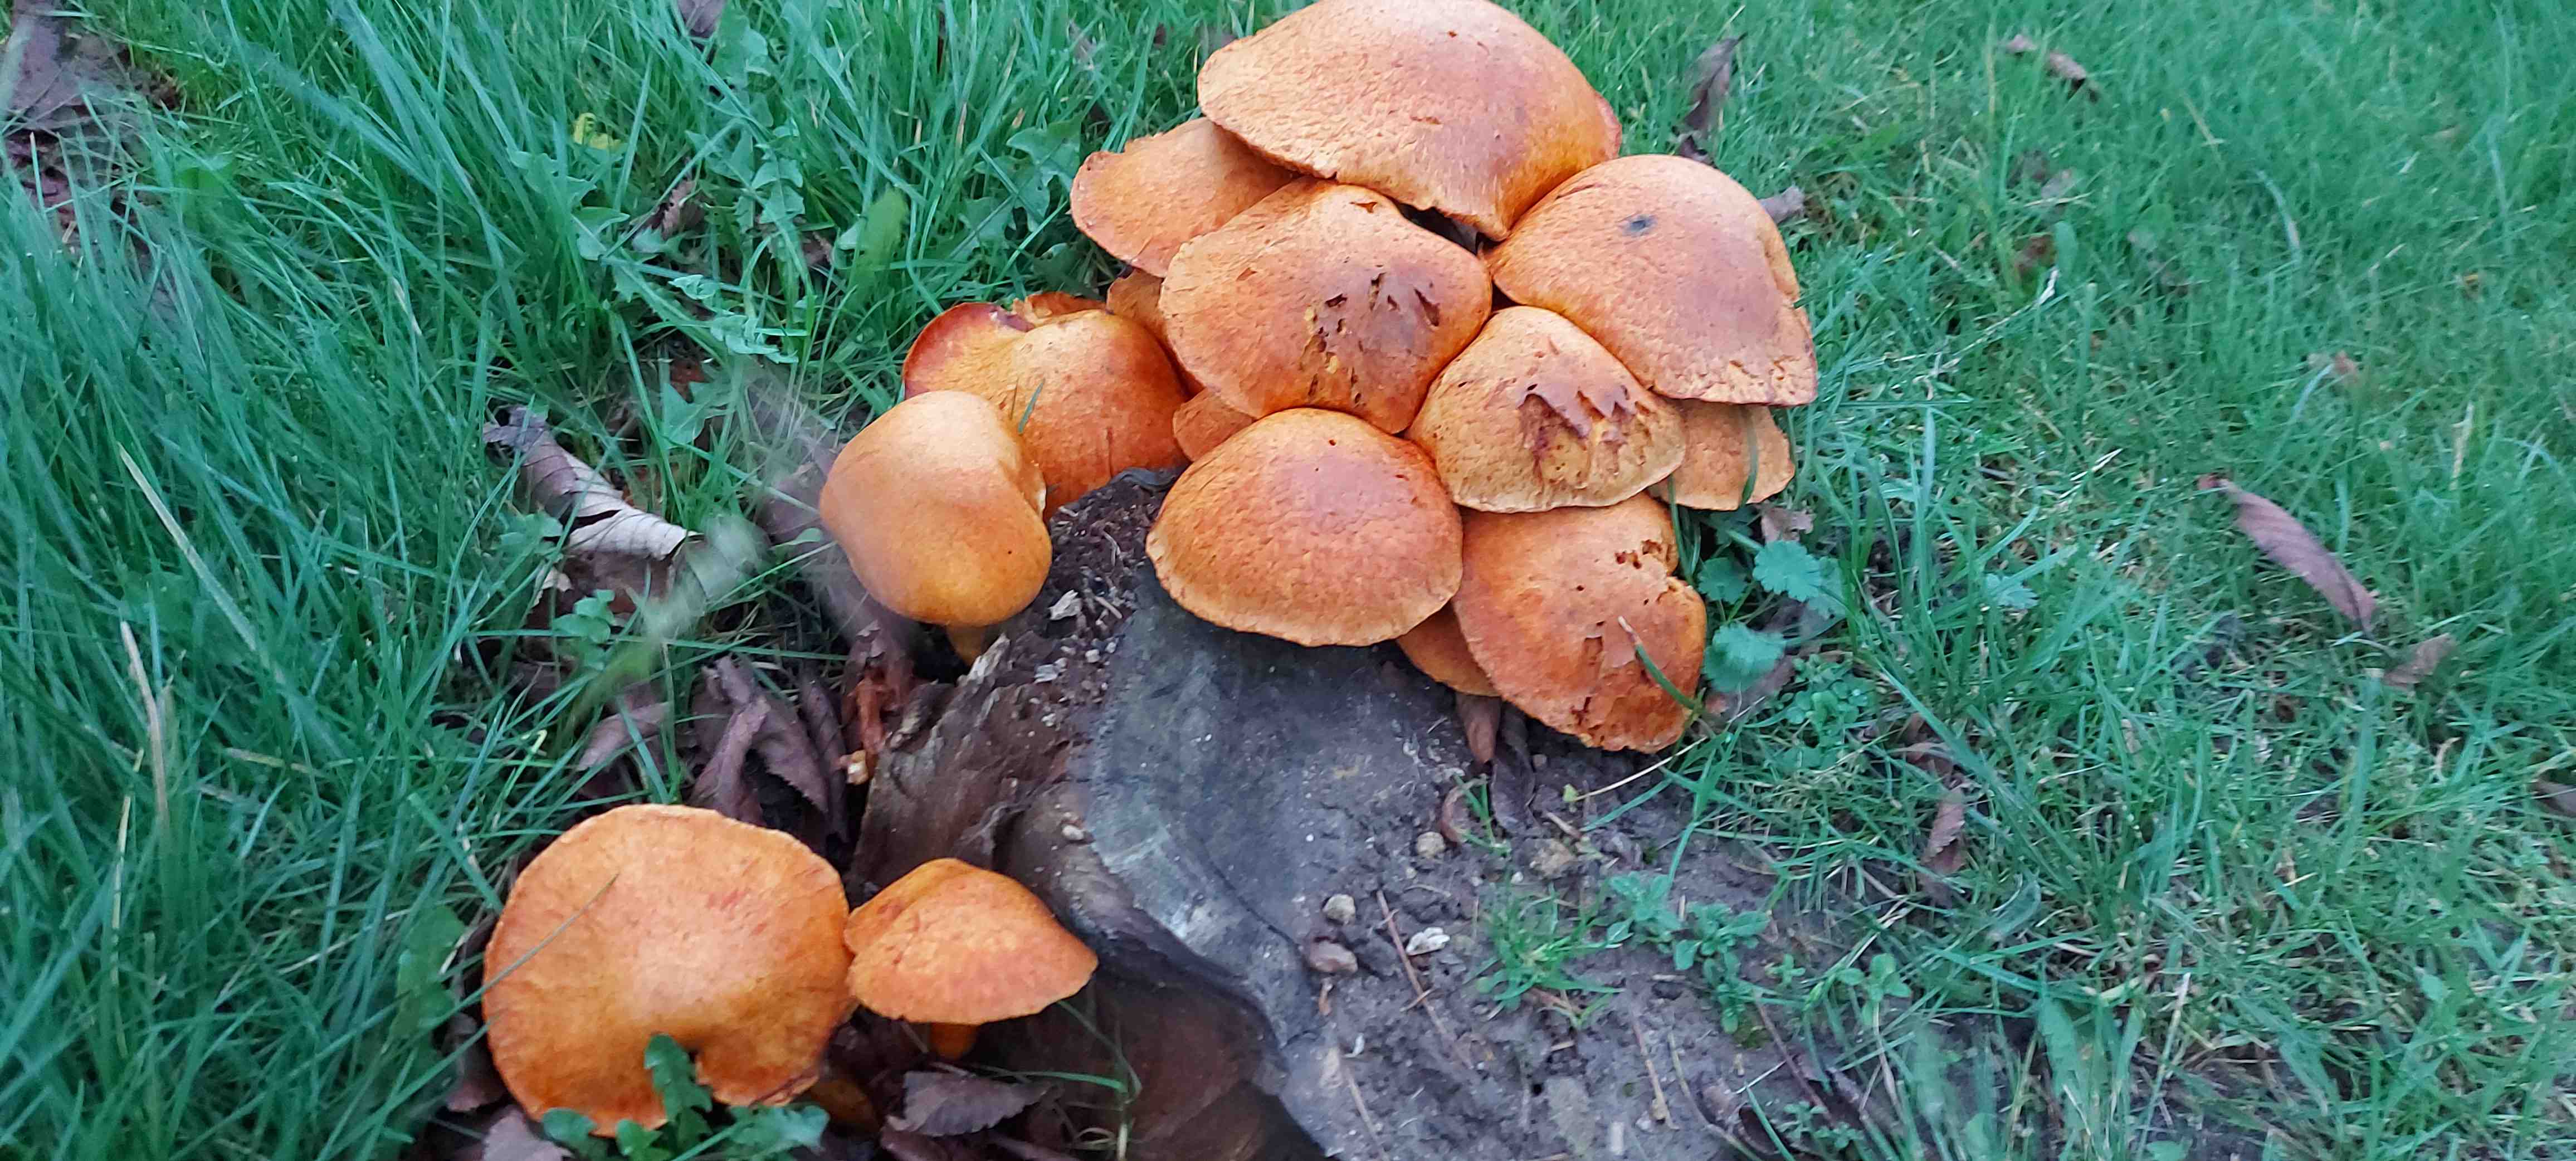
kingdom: Fungi
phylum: Basidiomycota
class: Agaricomycetes
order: Agaricales
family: Hymenogastraceae
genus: Gymnopilus
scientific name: Gymnopilus spectabilis
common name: fibret flammehat
